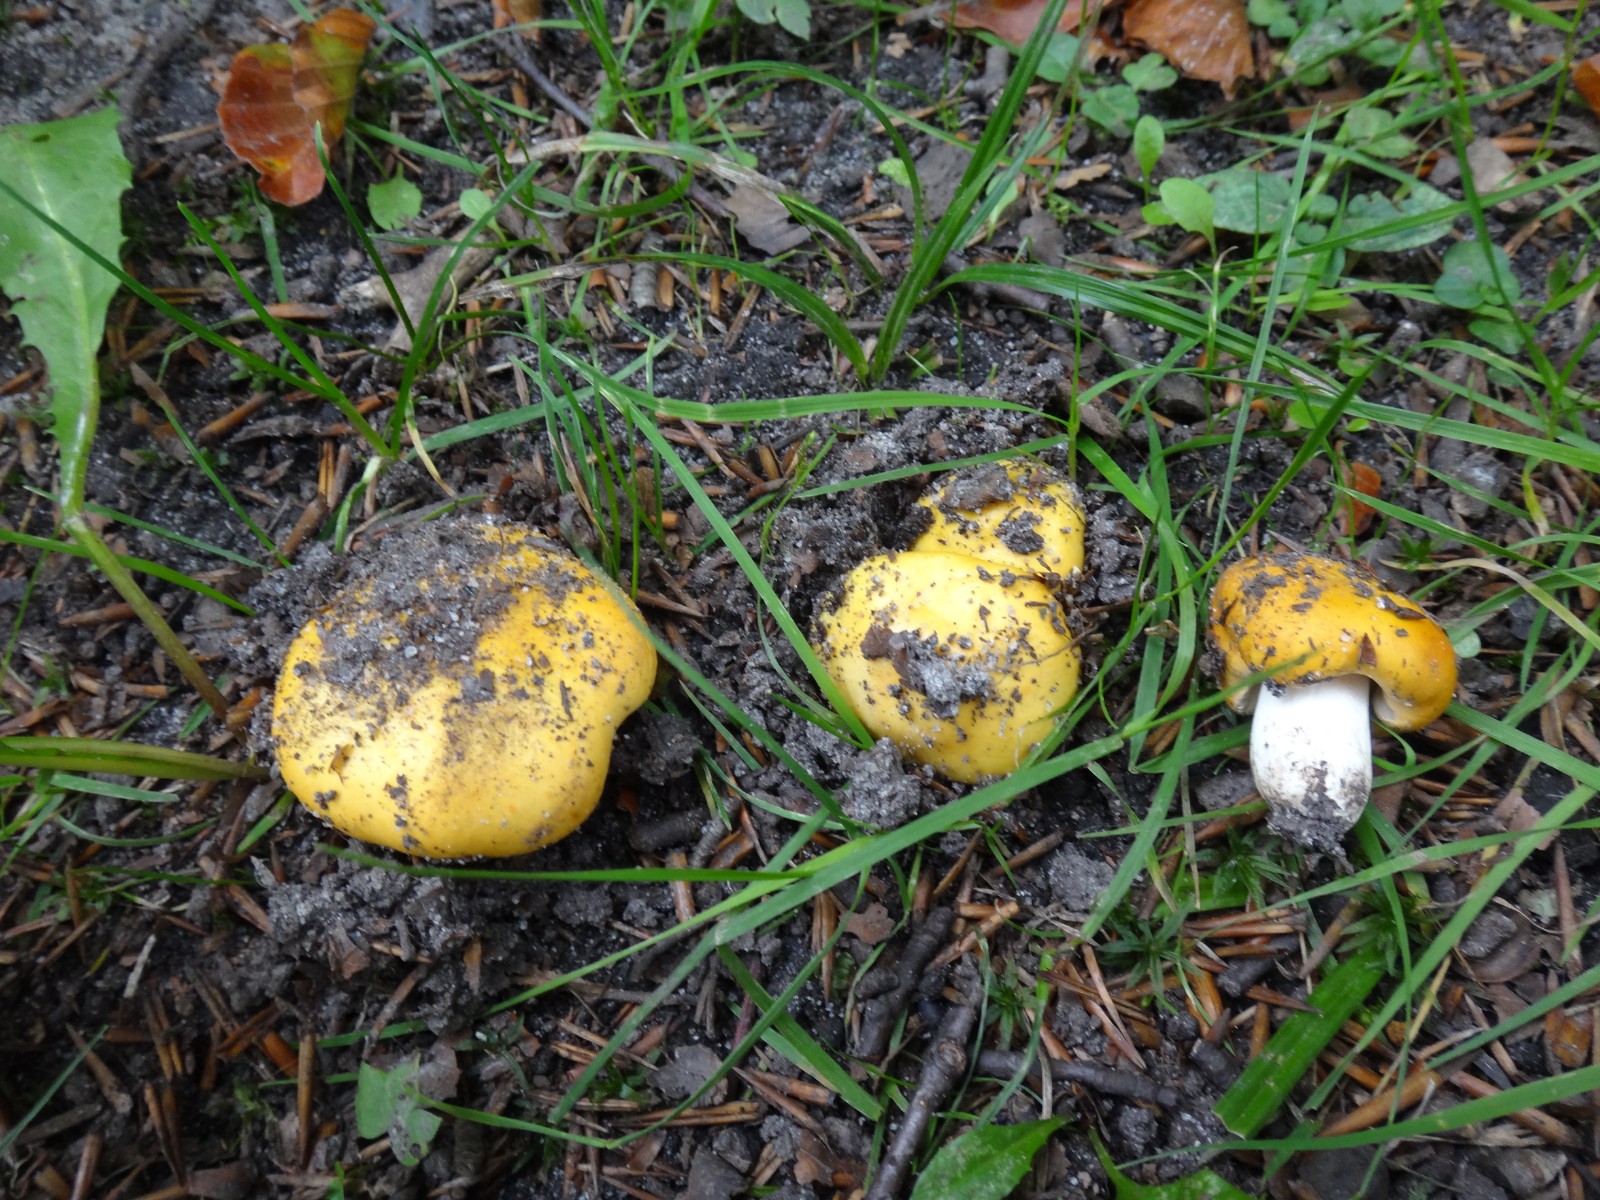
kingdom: Fungi
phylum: Basidiomycota
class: Agaricomycetes
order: Russulales
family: Russulaceae
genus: Russula
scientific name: Russula risigallina
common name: abrikos-skørhat
